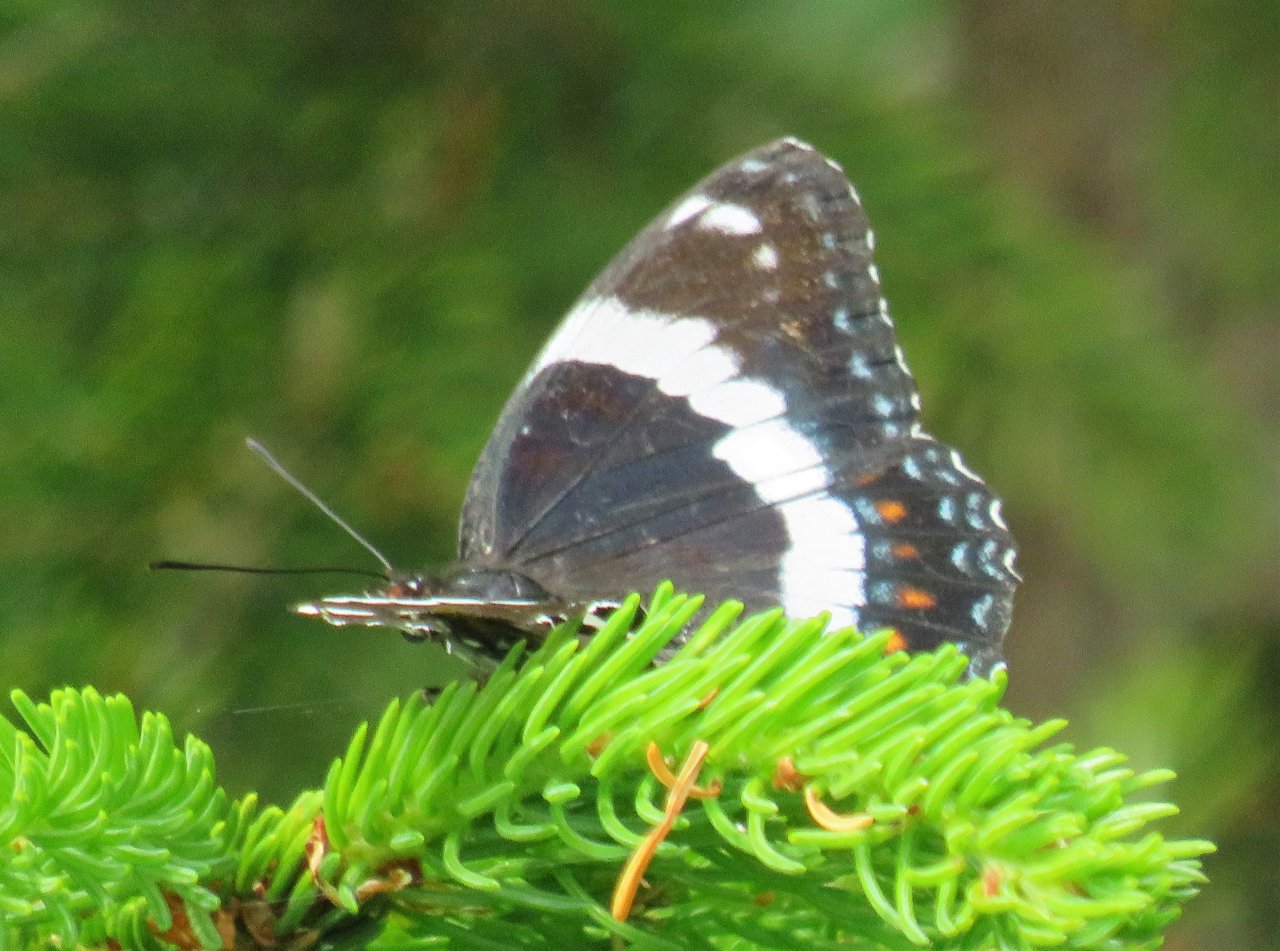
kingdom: Animalia
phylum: Arthropoda
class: Insecta
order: Lepidoptera
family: Nymphalidae
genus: Limenitis
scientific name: Limenitis arthemis
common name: Red-spotted Admiral
